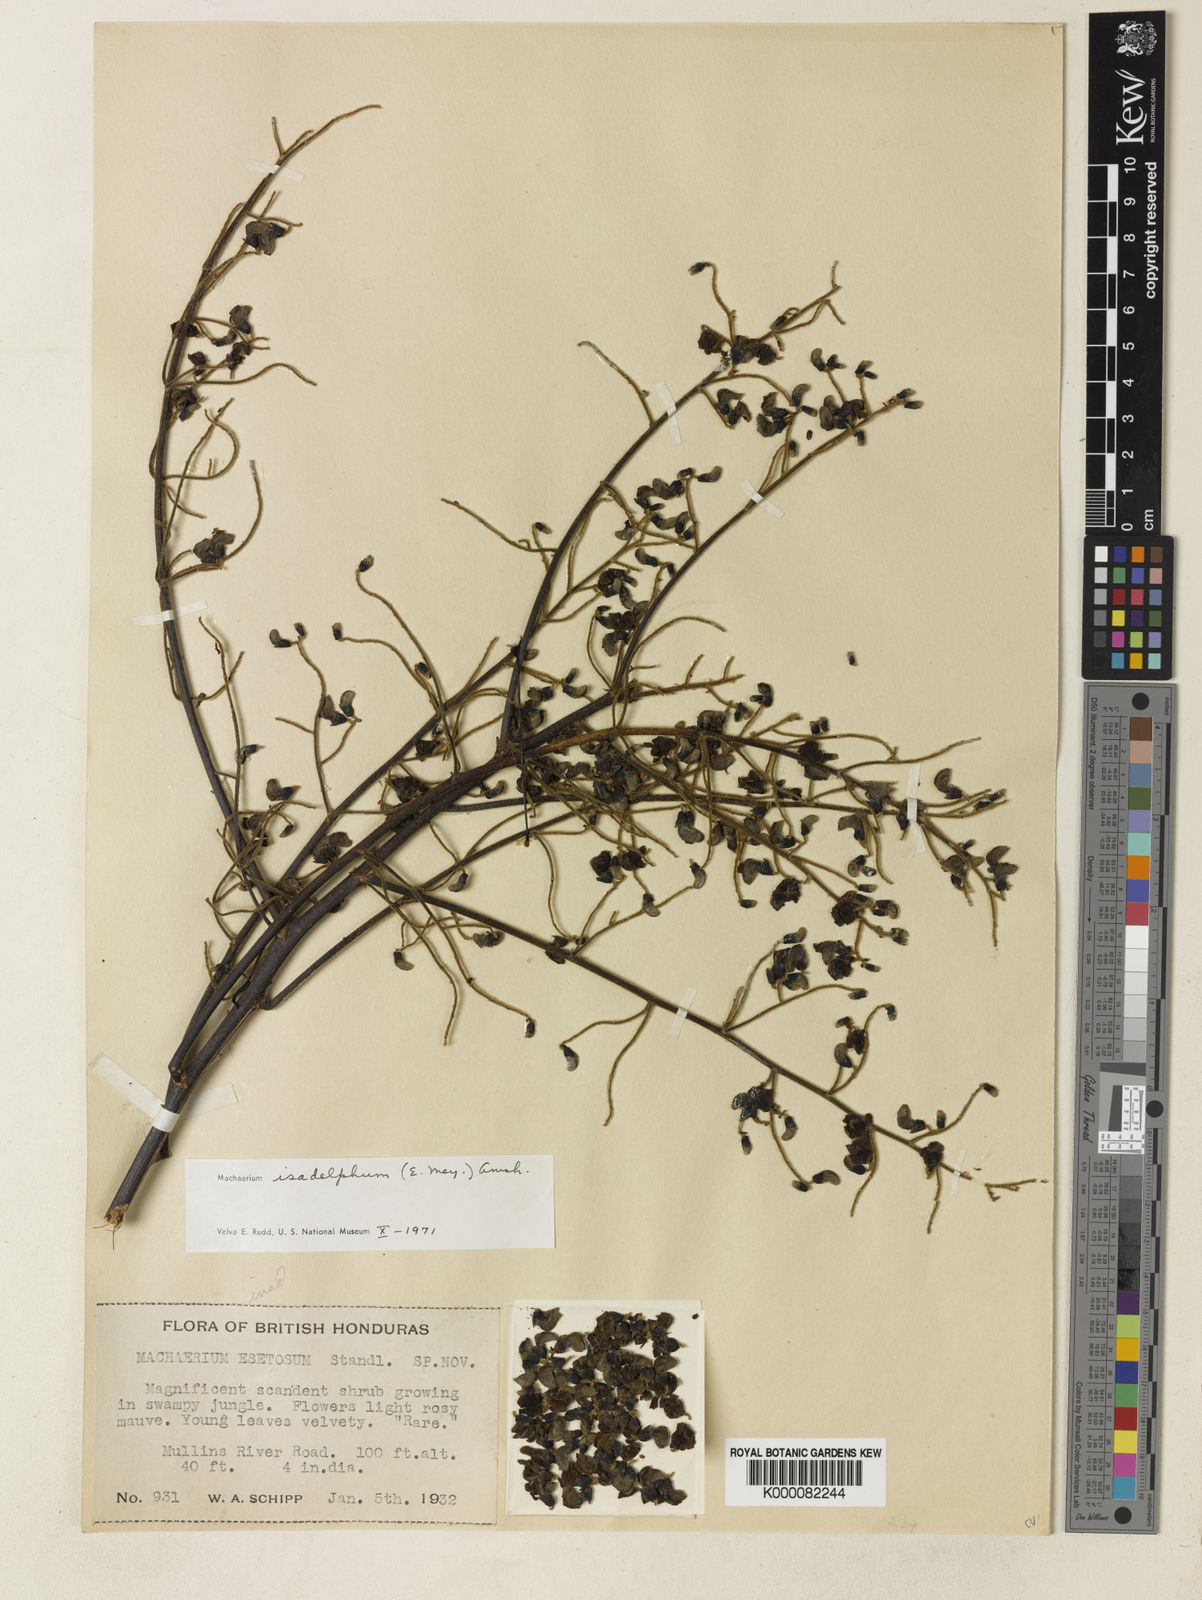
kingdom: Plantae
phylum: Tracheophyta
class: Magnoliopsida
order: Fabales
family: Fabaceae
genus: Machaerium
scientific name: Machaerium isadelphum
